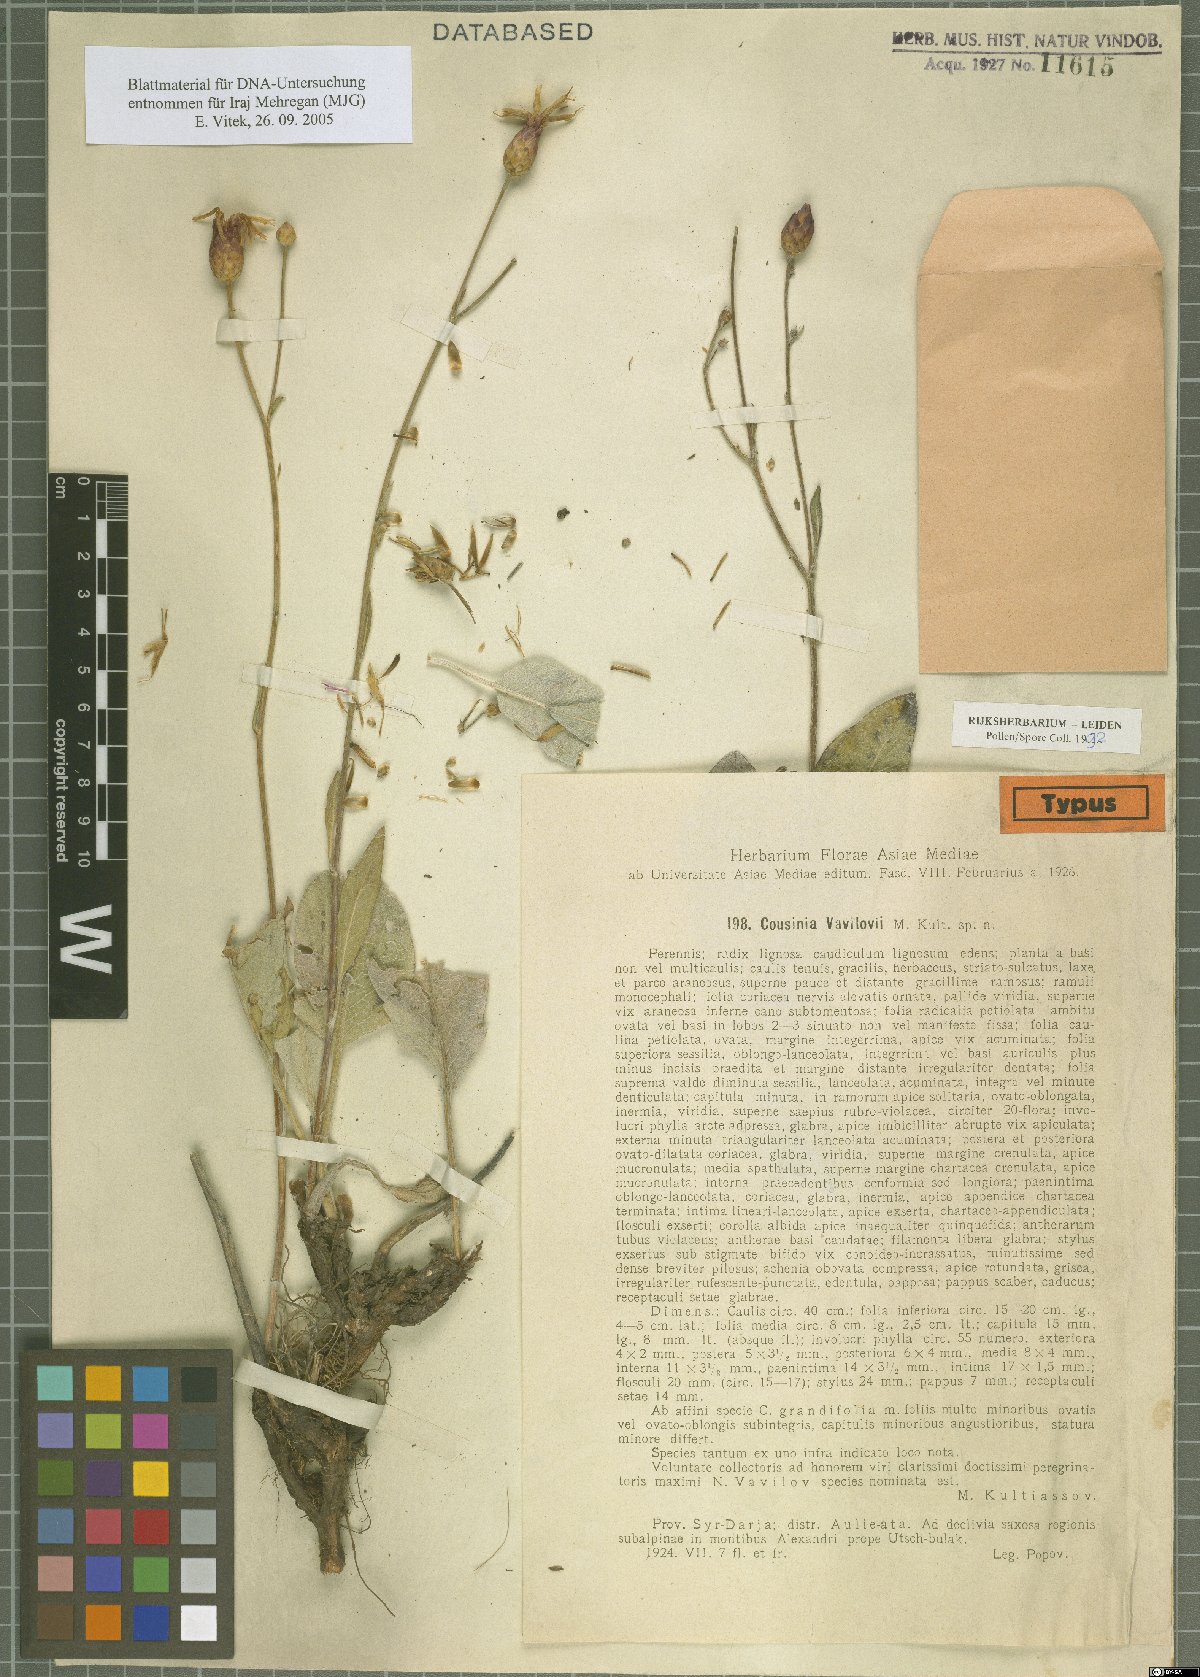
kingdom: Plantae
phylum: Tracheophyta
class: Magnoliopsida
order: Asterales
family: Asteraceae
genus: Arctium
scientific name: Arctium vavilovii
